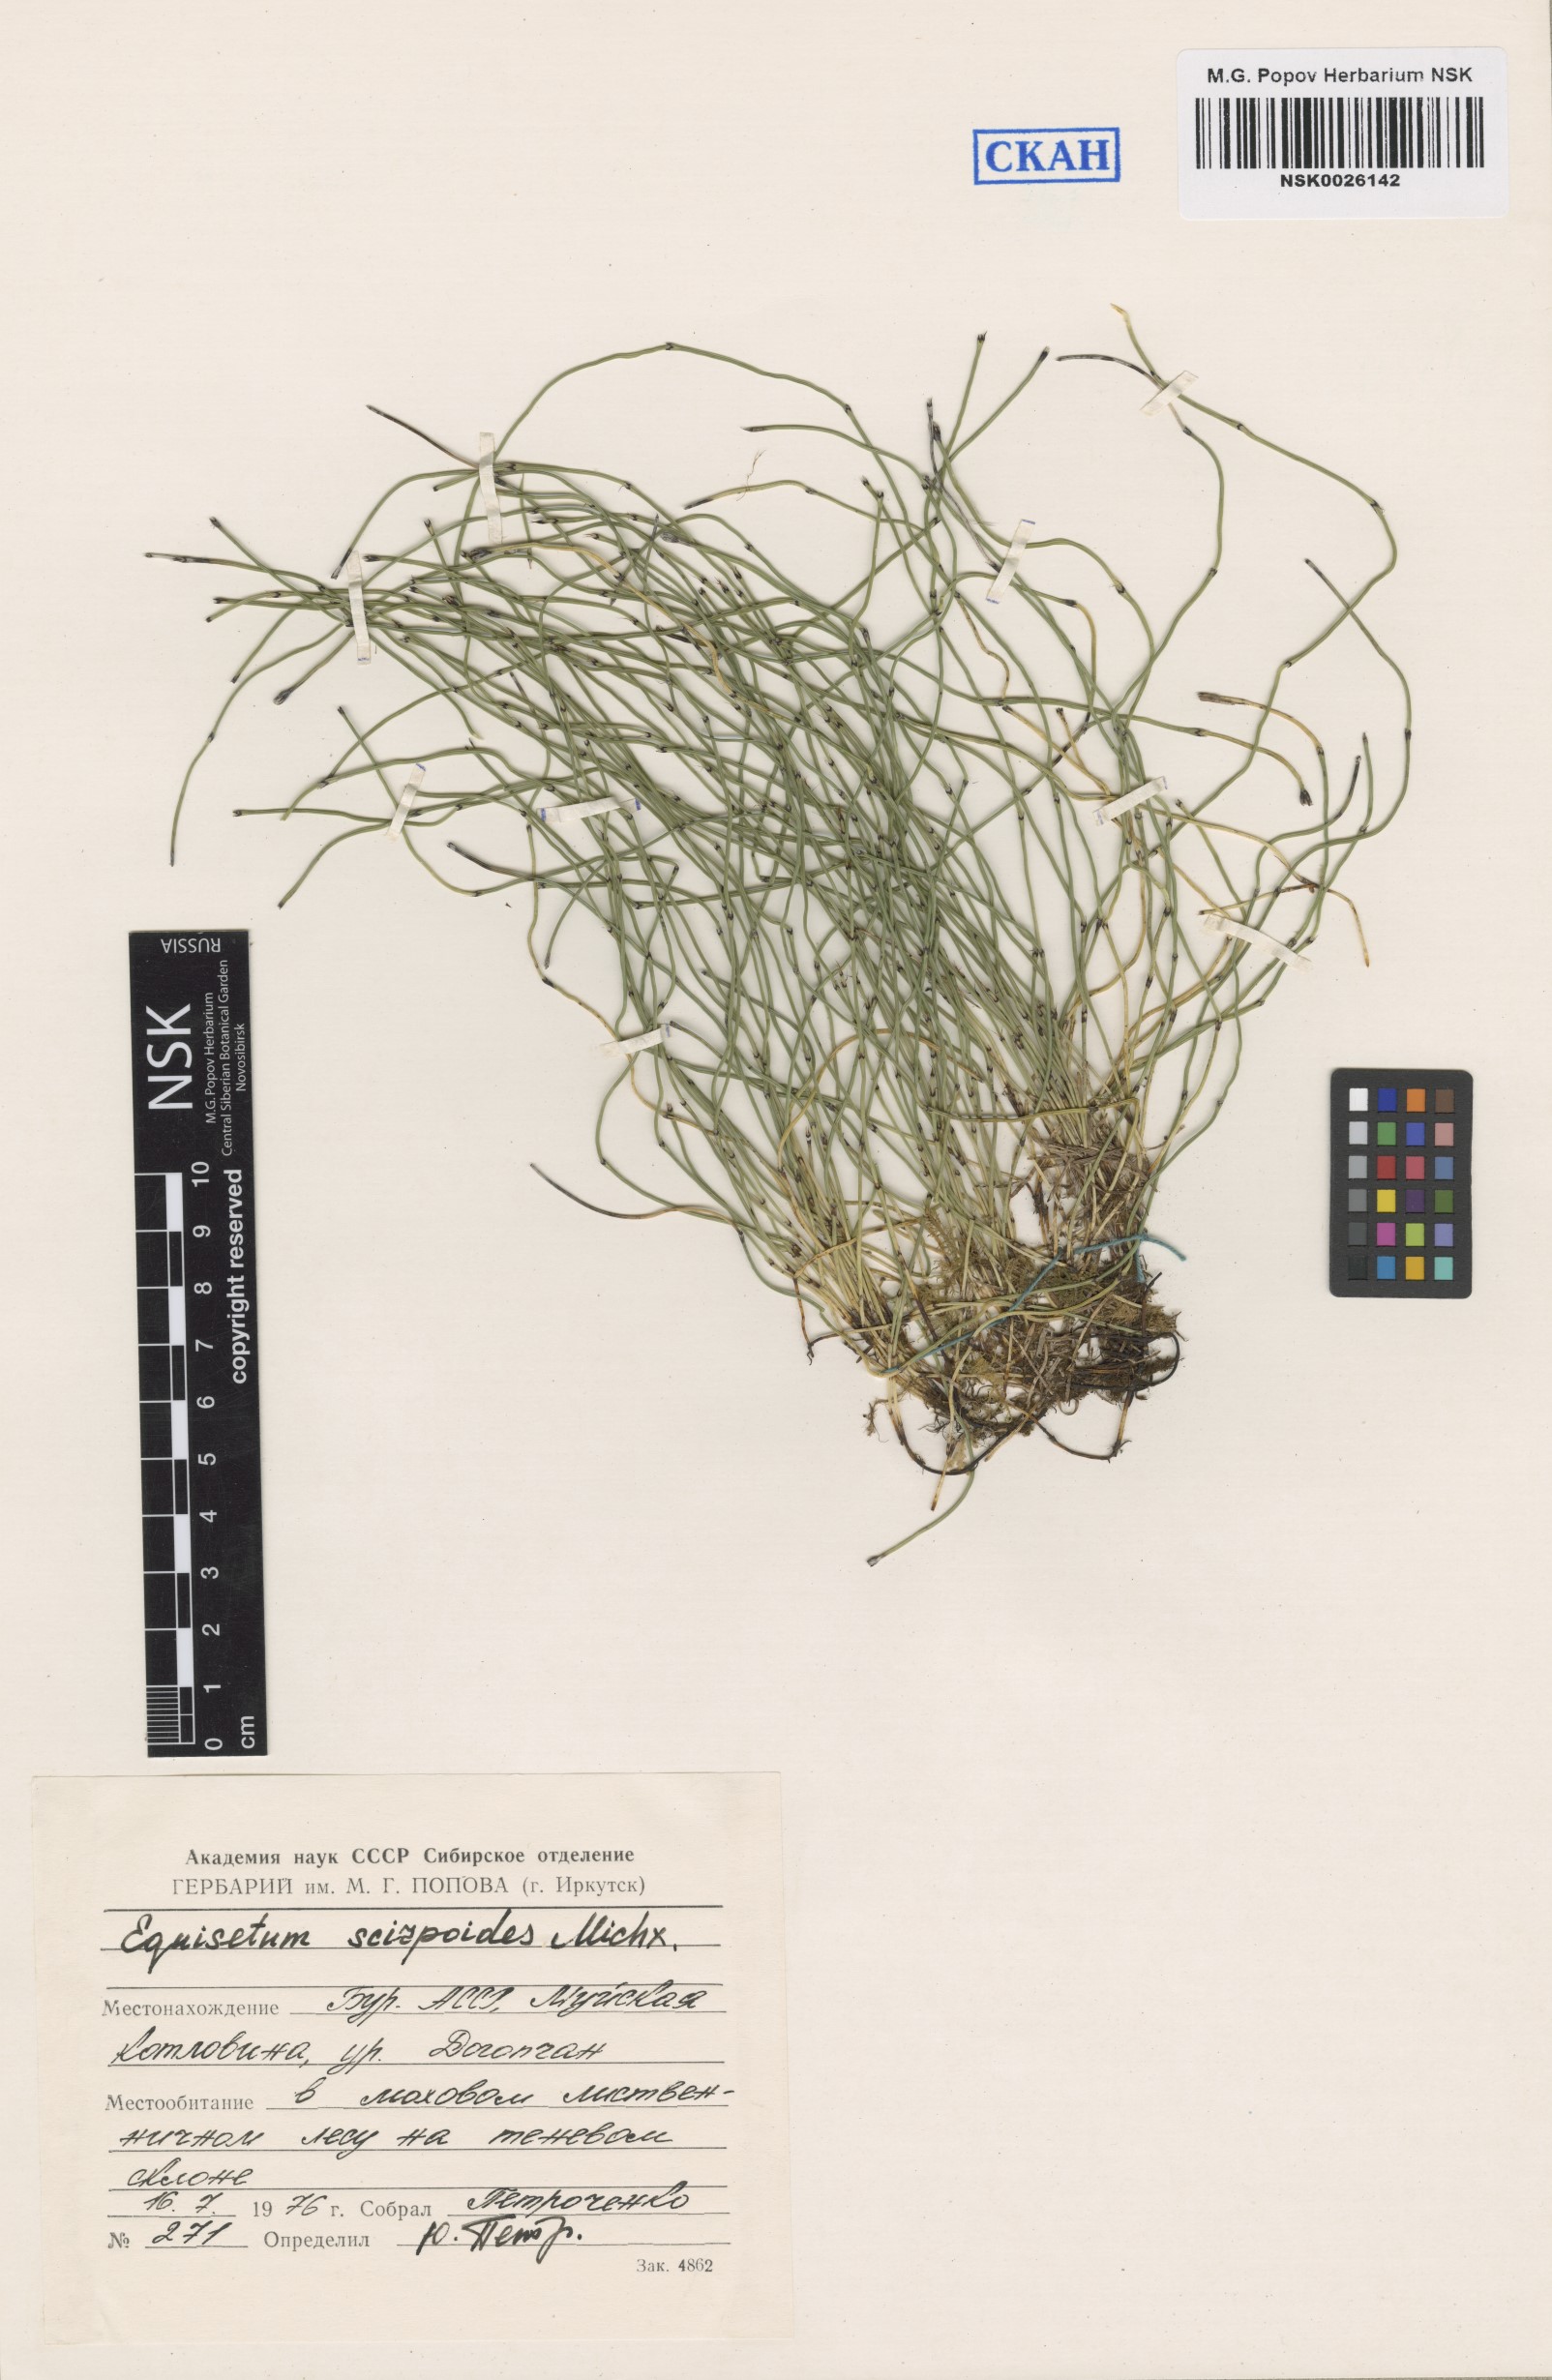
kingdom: Plantae
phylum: Tracheophyta
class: Polypodiopsida
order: Equisetales
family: Equisetaceae
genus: Equisetum
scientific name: Equisetum scirpoides
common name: Delicate horsetail
